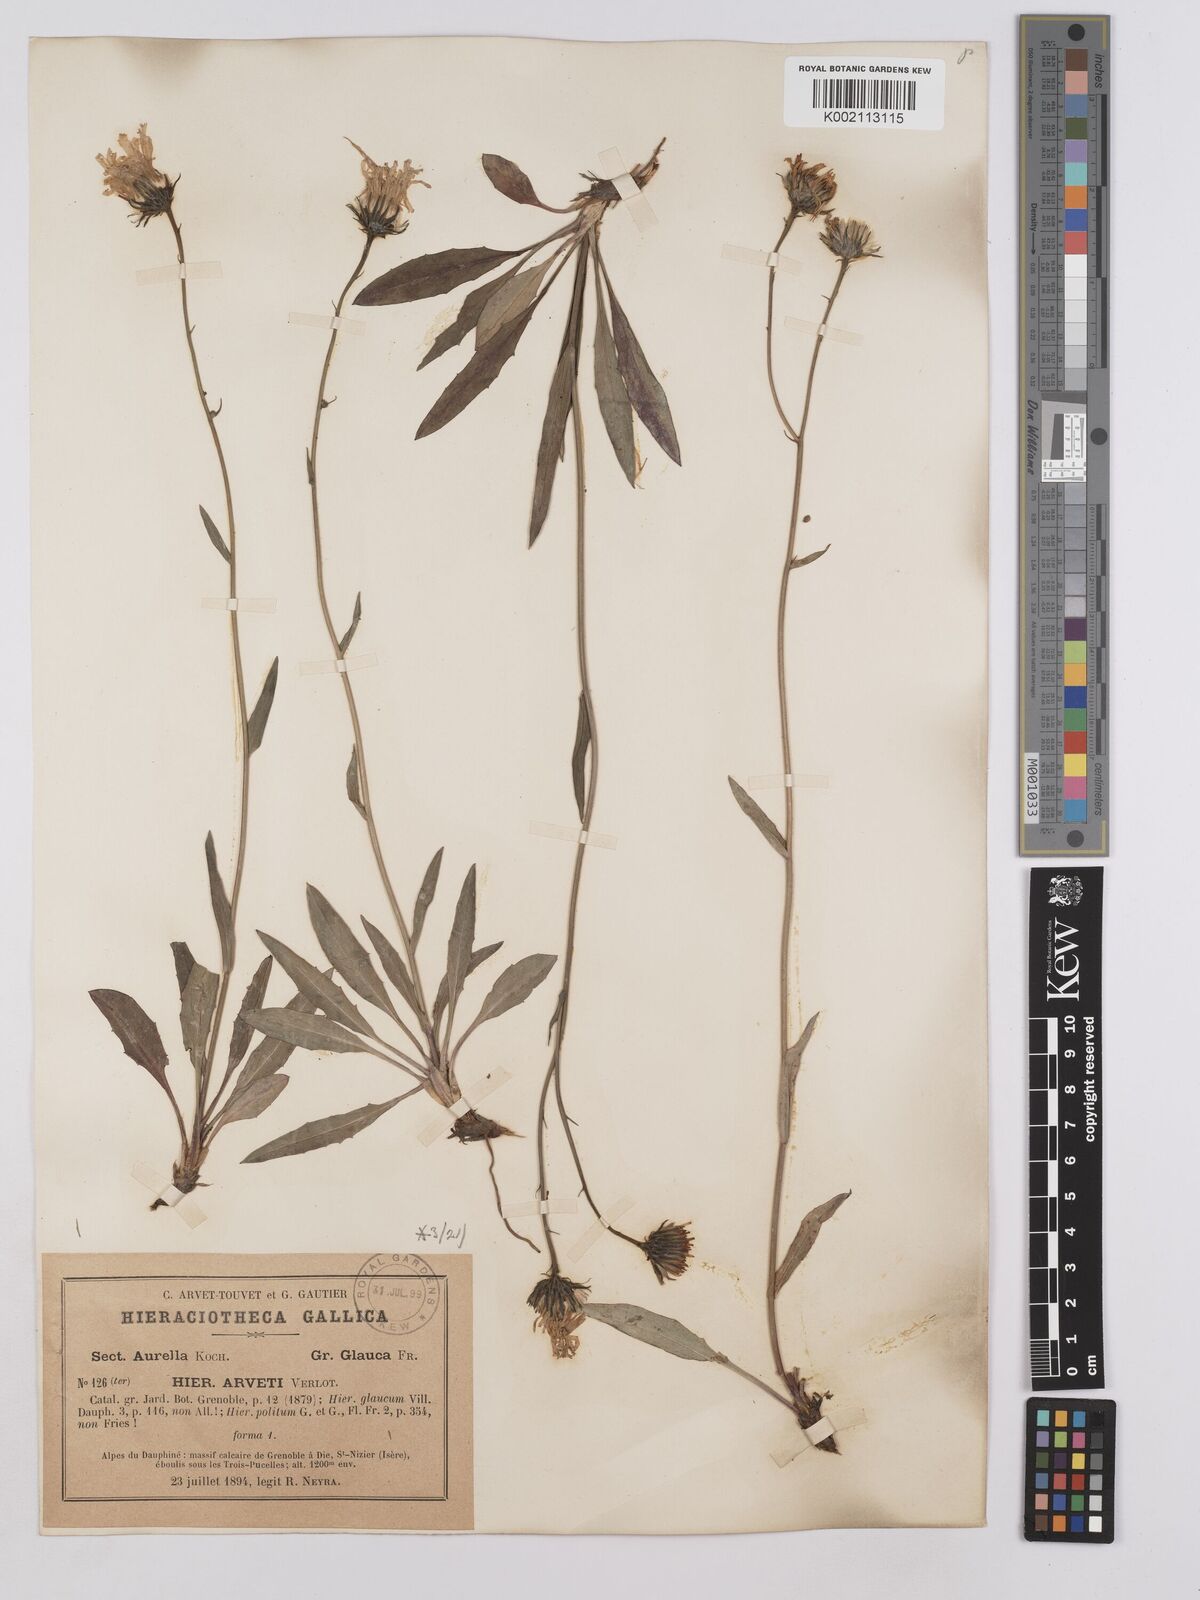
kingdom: Plantae
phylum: Tracheophyta
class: Magnoliopsida
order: Asterales
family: Asteraceae
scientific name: Asteraceae
